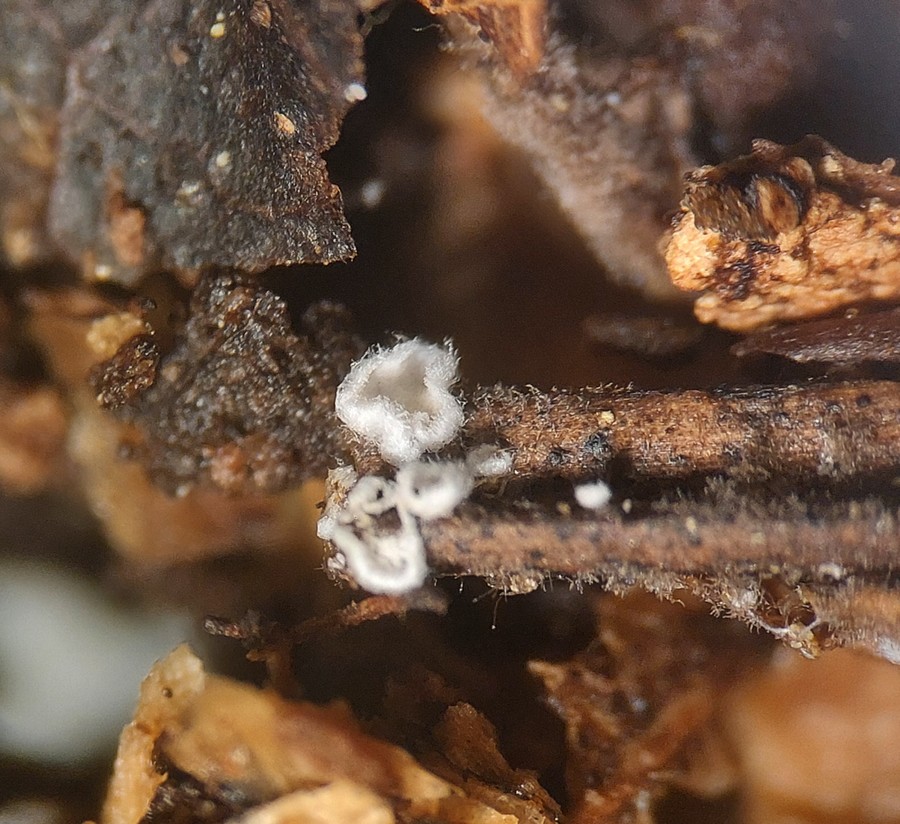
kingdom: Fungi
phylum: Basidiomycota
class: Agaricomycetes
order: Agaricales
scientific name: Agaricales
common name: champignonordenen
